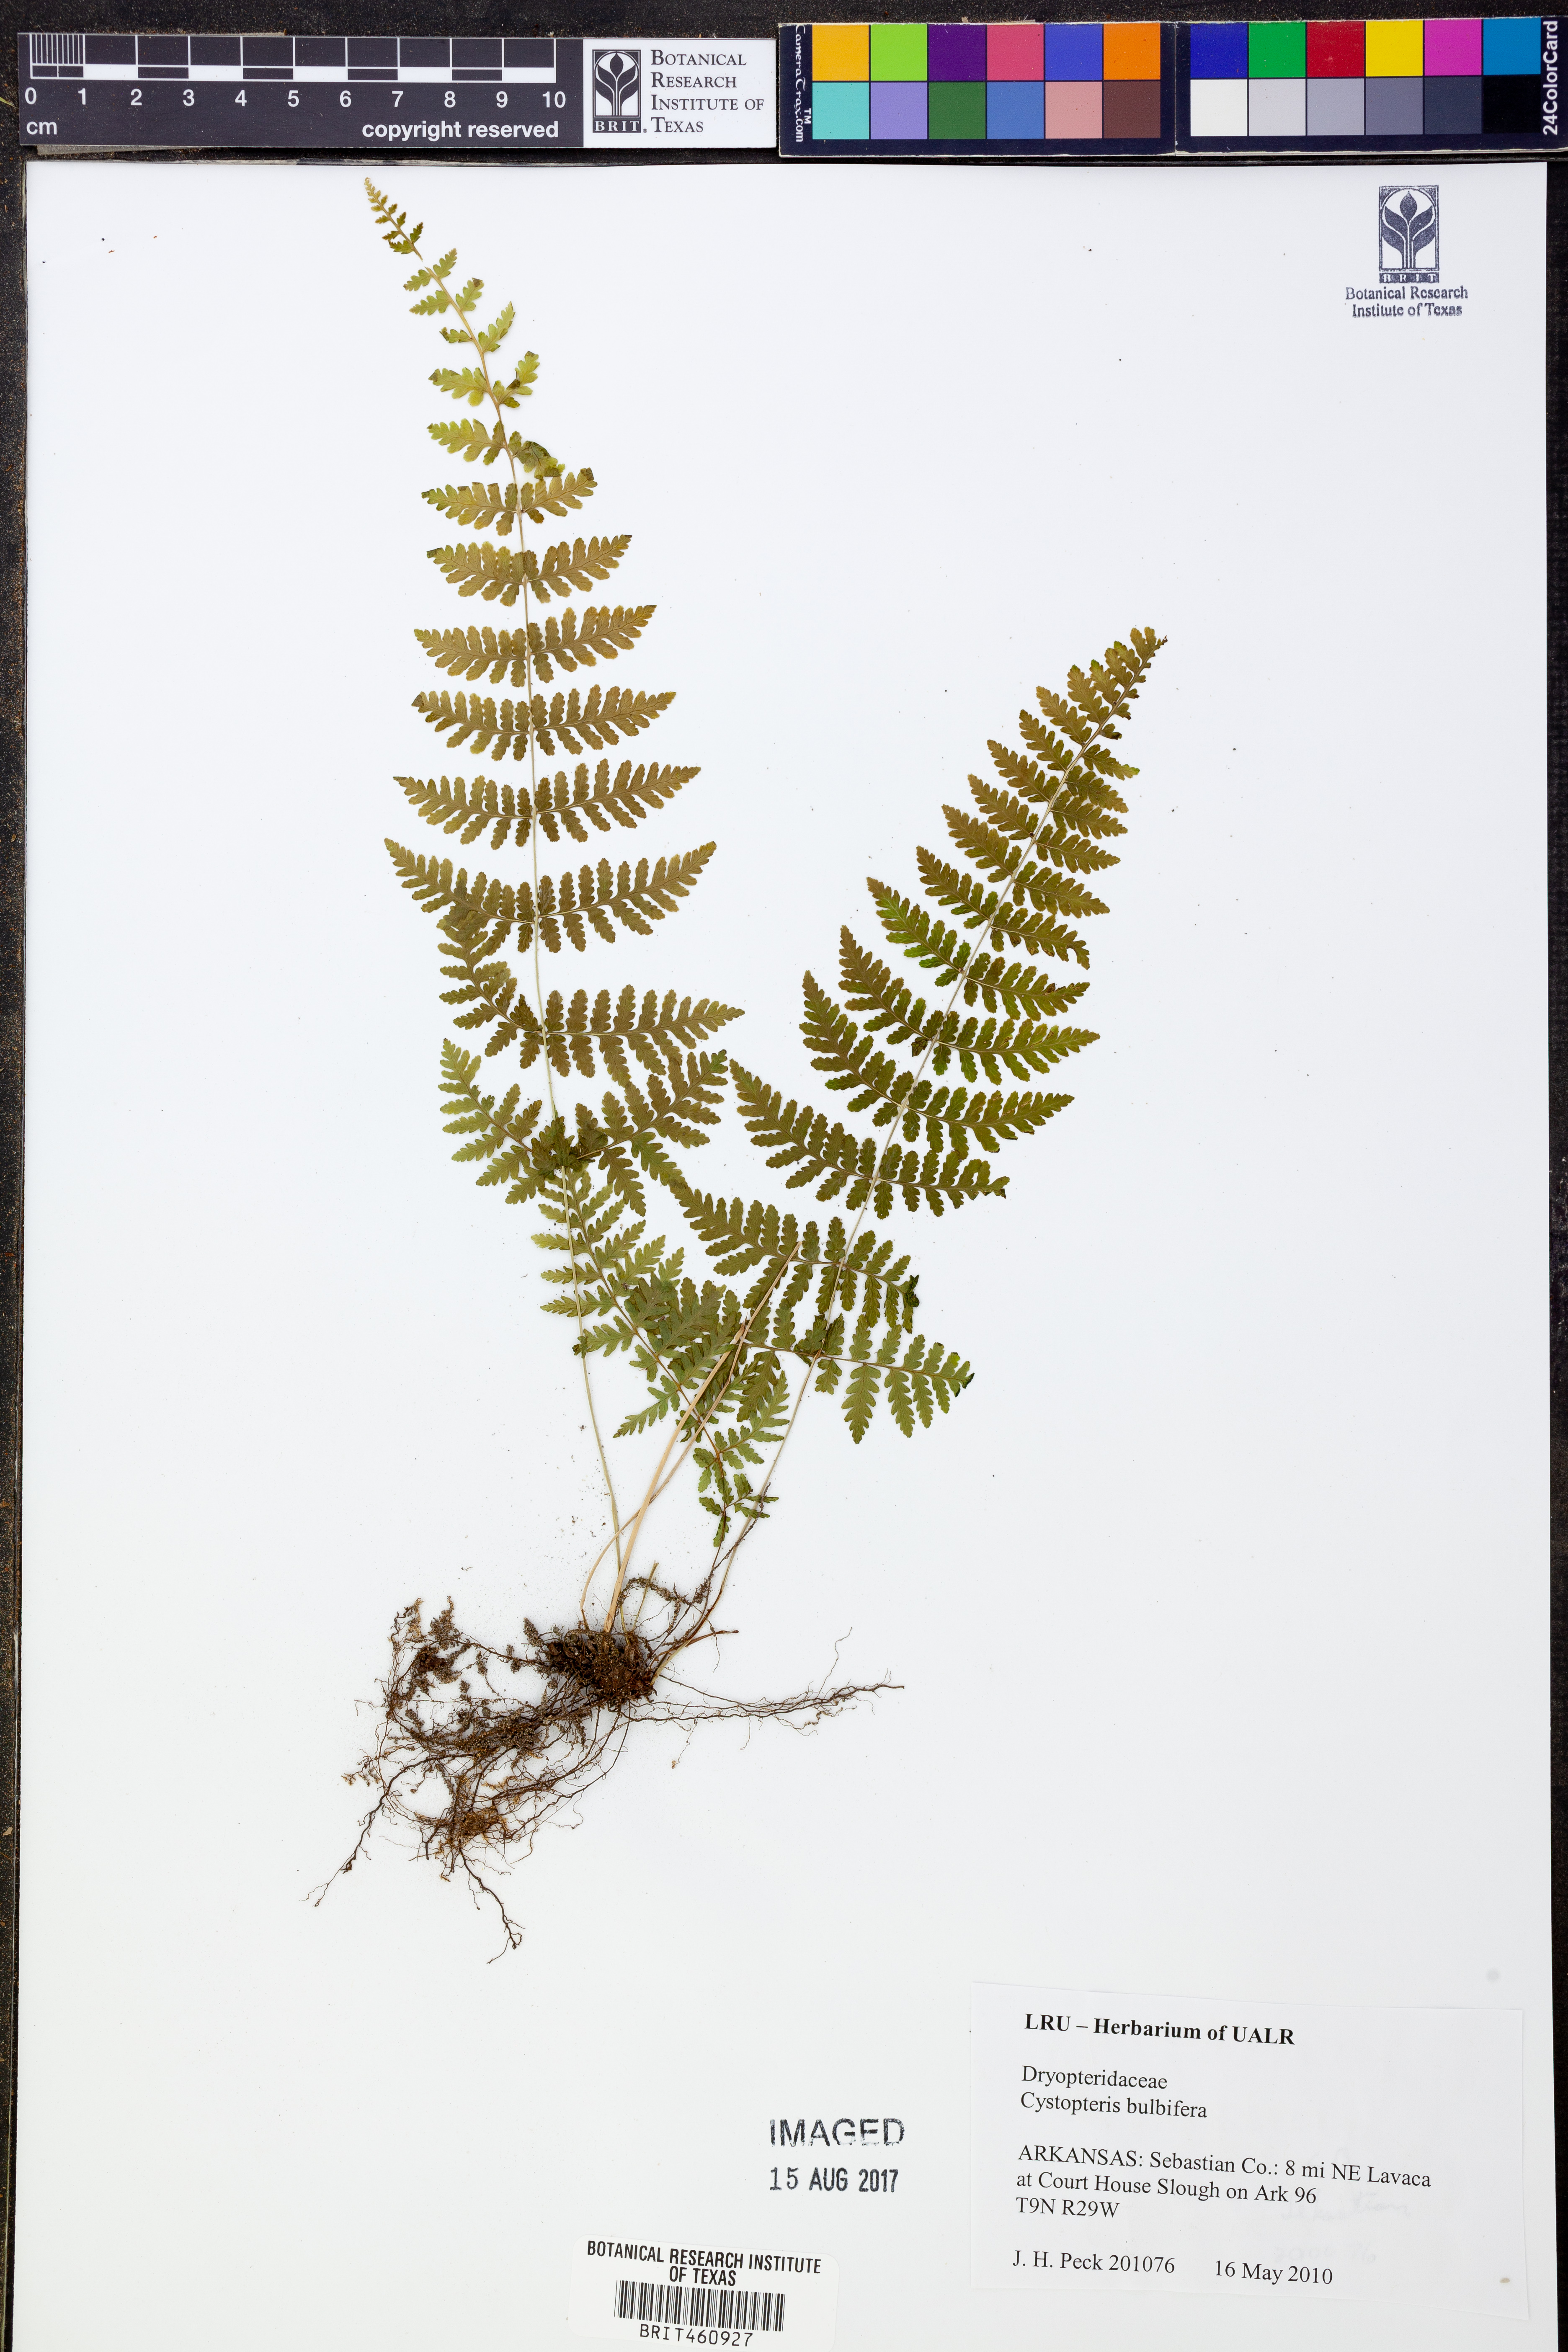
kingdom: Plantae
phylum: Tracheophyta
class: Polypodiopsida
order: Polypodiales
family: Cystopteridaceae
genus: Cystopteris
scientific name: Cystopteris bulbifera
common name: Bulblet bladder fern
